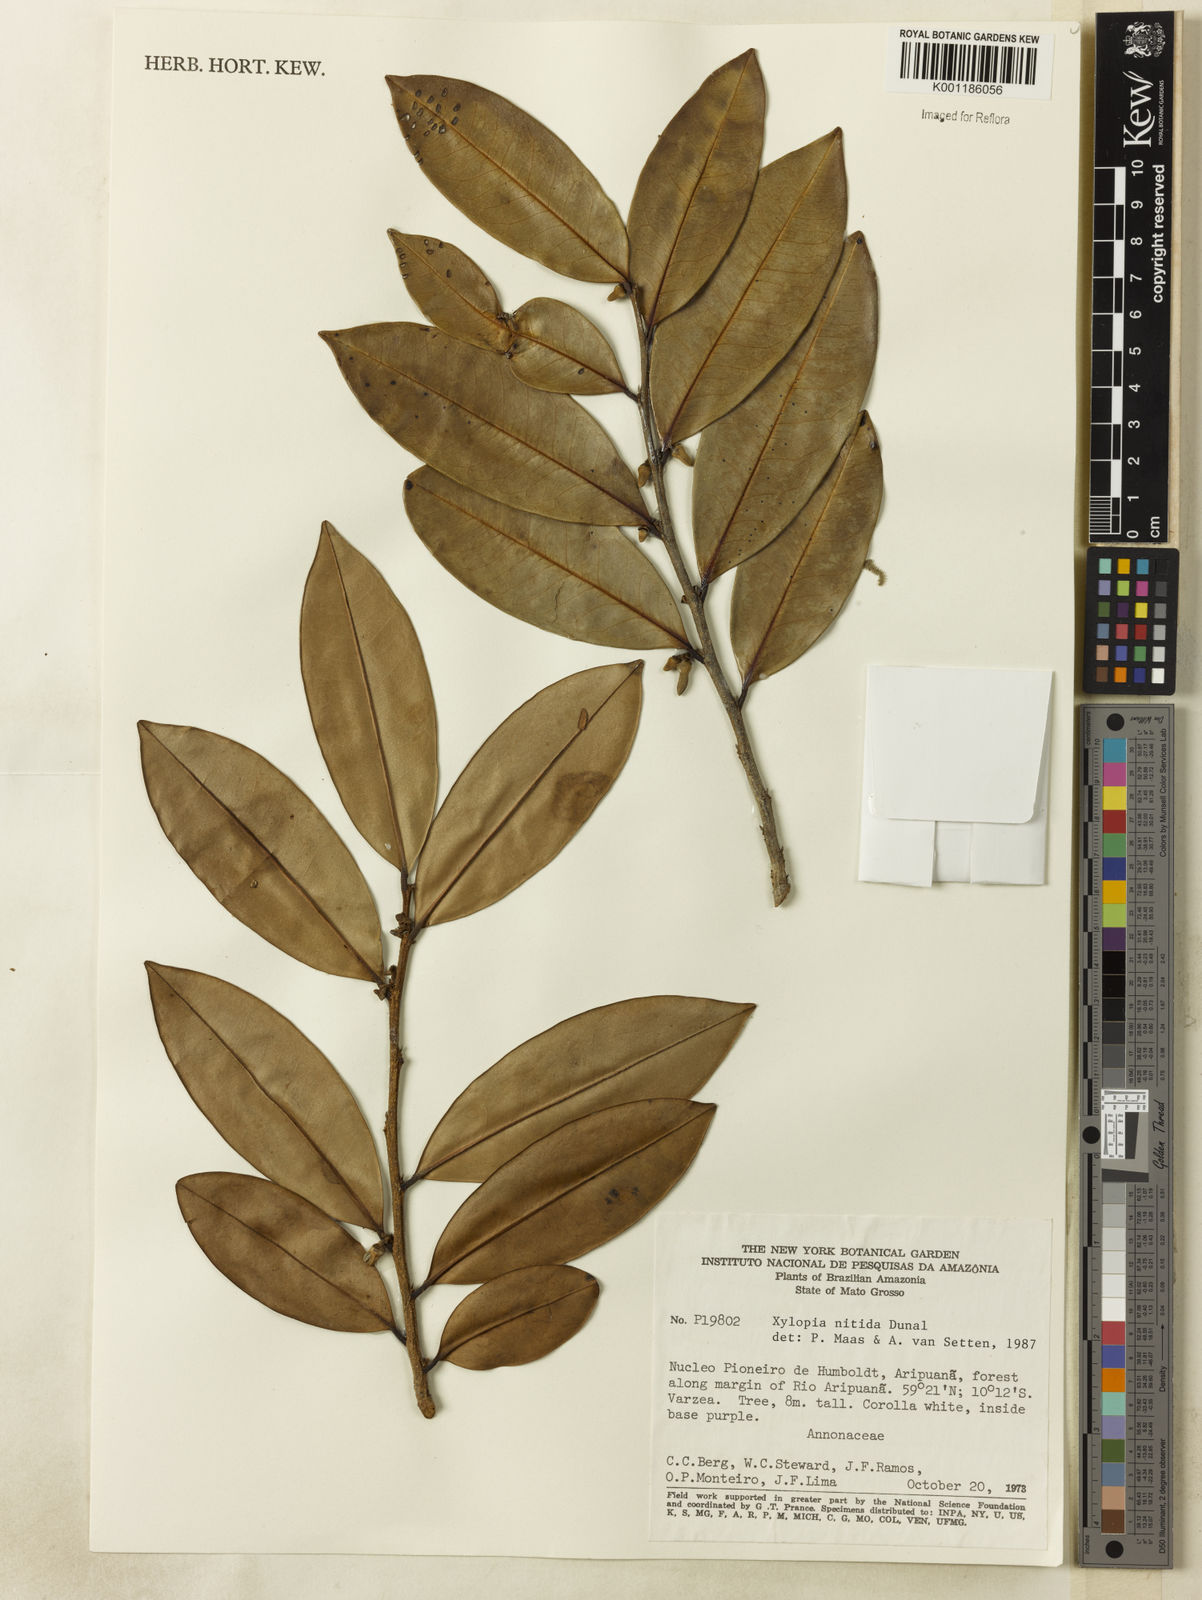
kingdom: Plantae
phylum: Tracheophyta
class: Magnoliopsida
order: Magnoliales
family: Annonaceae
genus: Xylopia
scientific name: Xylopia nitida
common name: White kuyama
